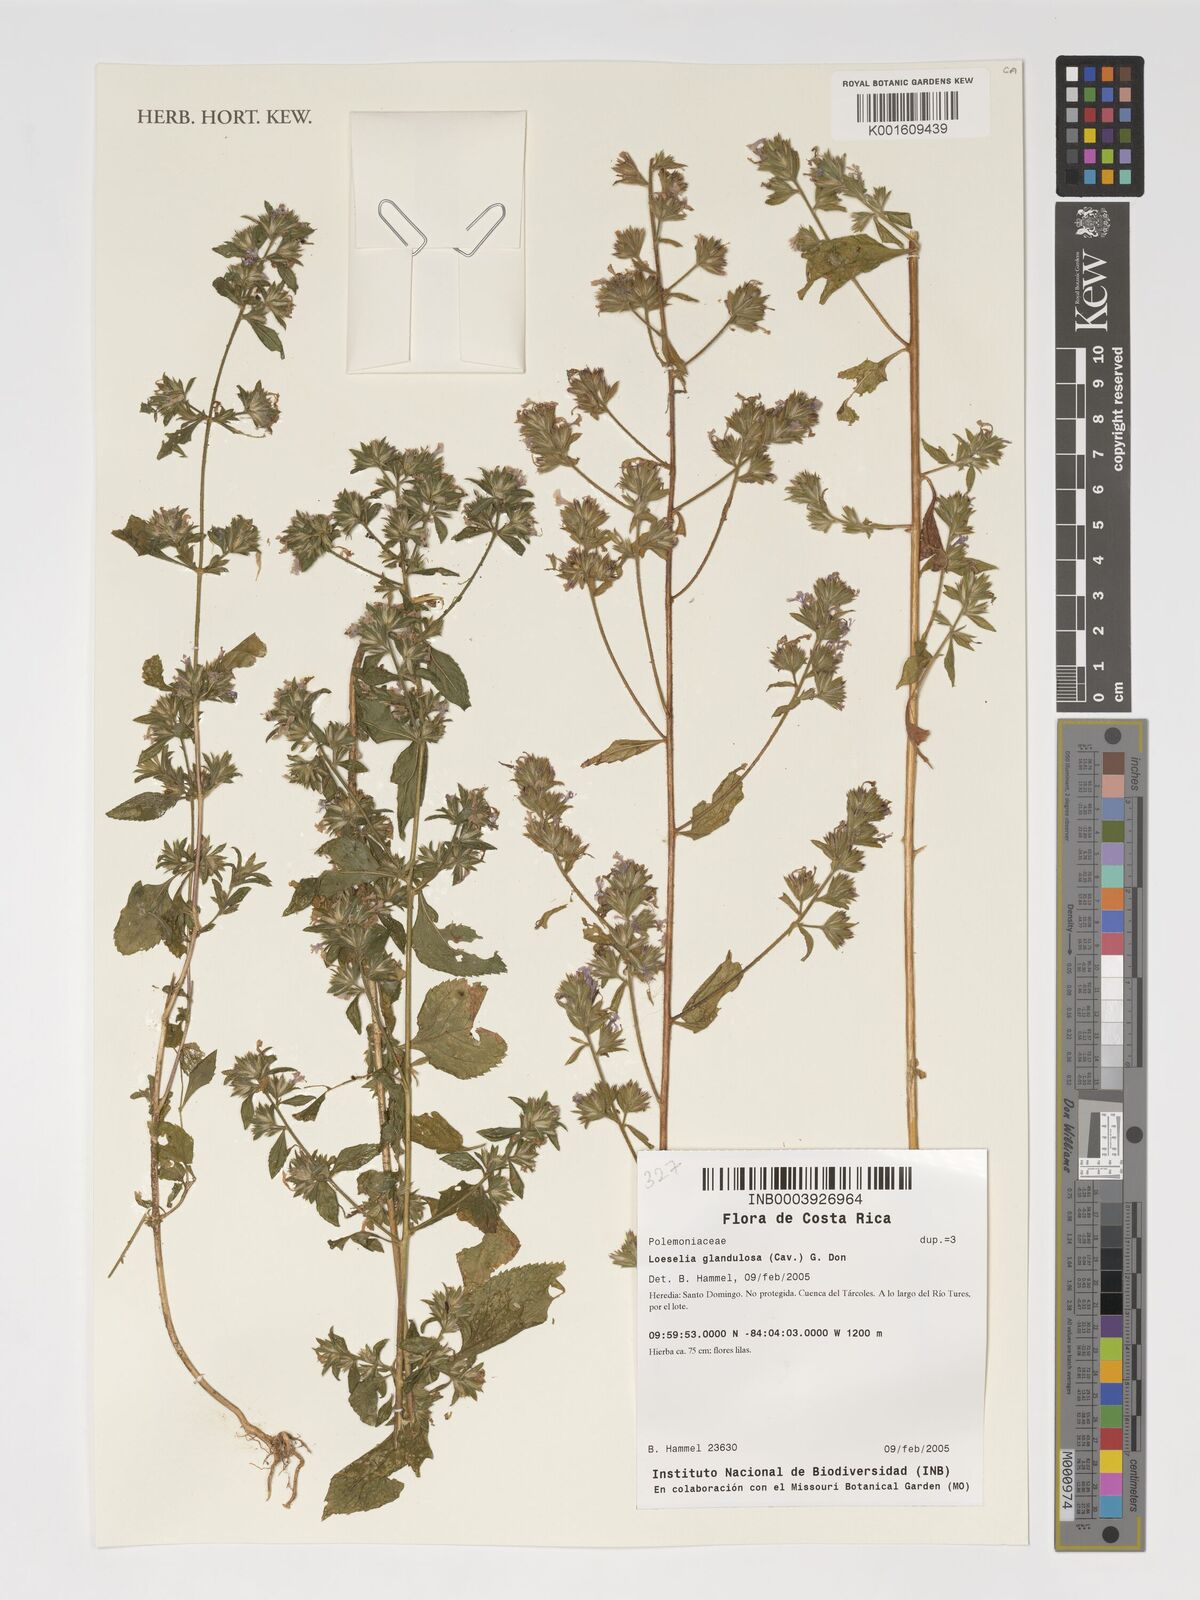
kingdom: Plantae
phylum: Tracheophyta
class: Magnoliopsida
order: Ericales
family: Polemoniaceae
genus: Loeselia
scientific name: Loeselia glandulosa
